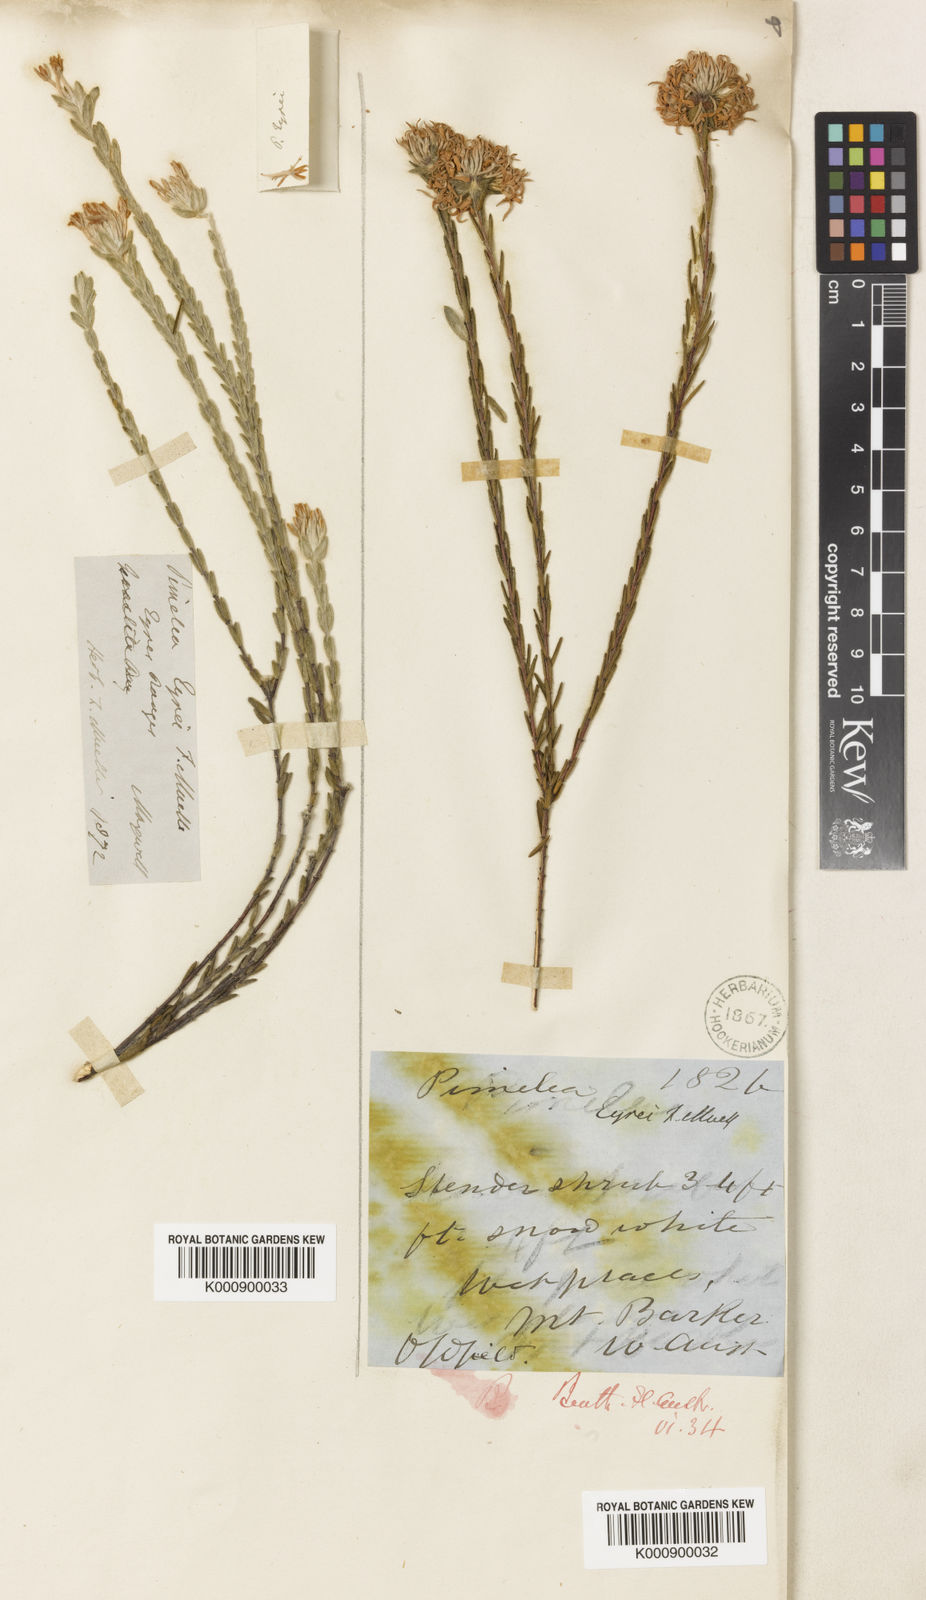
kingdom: Plantae
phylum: Tracheophyta
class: Magnoliopsida
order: Malvales
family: Thymelaeaceae
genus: Pimelea
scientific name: Pimelea eyrei
